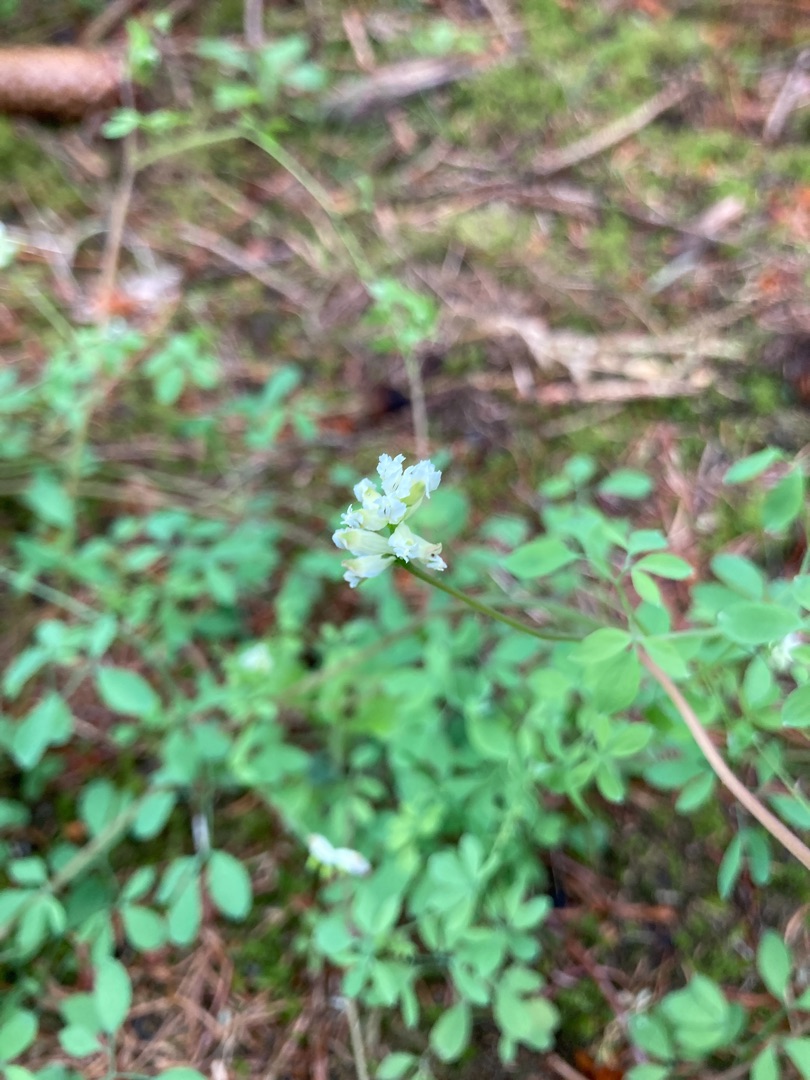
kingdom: Plantae
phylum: Tracheophyta
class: Magnoliopsida
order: Ranunculales
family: Papaveraceae
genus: Ceratocapnos
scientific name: Ceratocapnos claviculata
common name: Klatrende lærkespore
